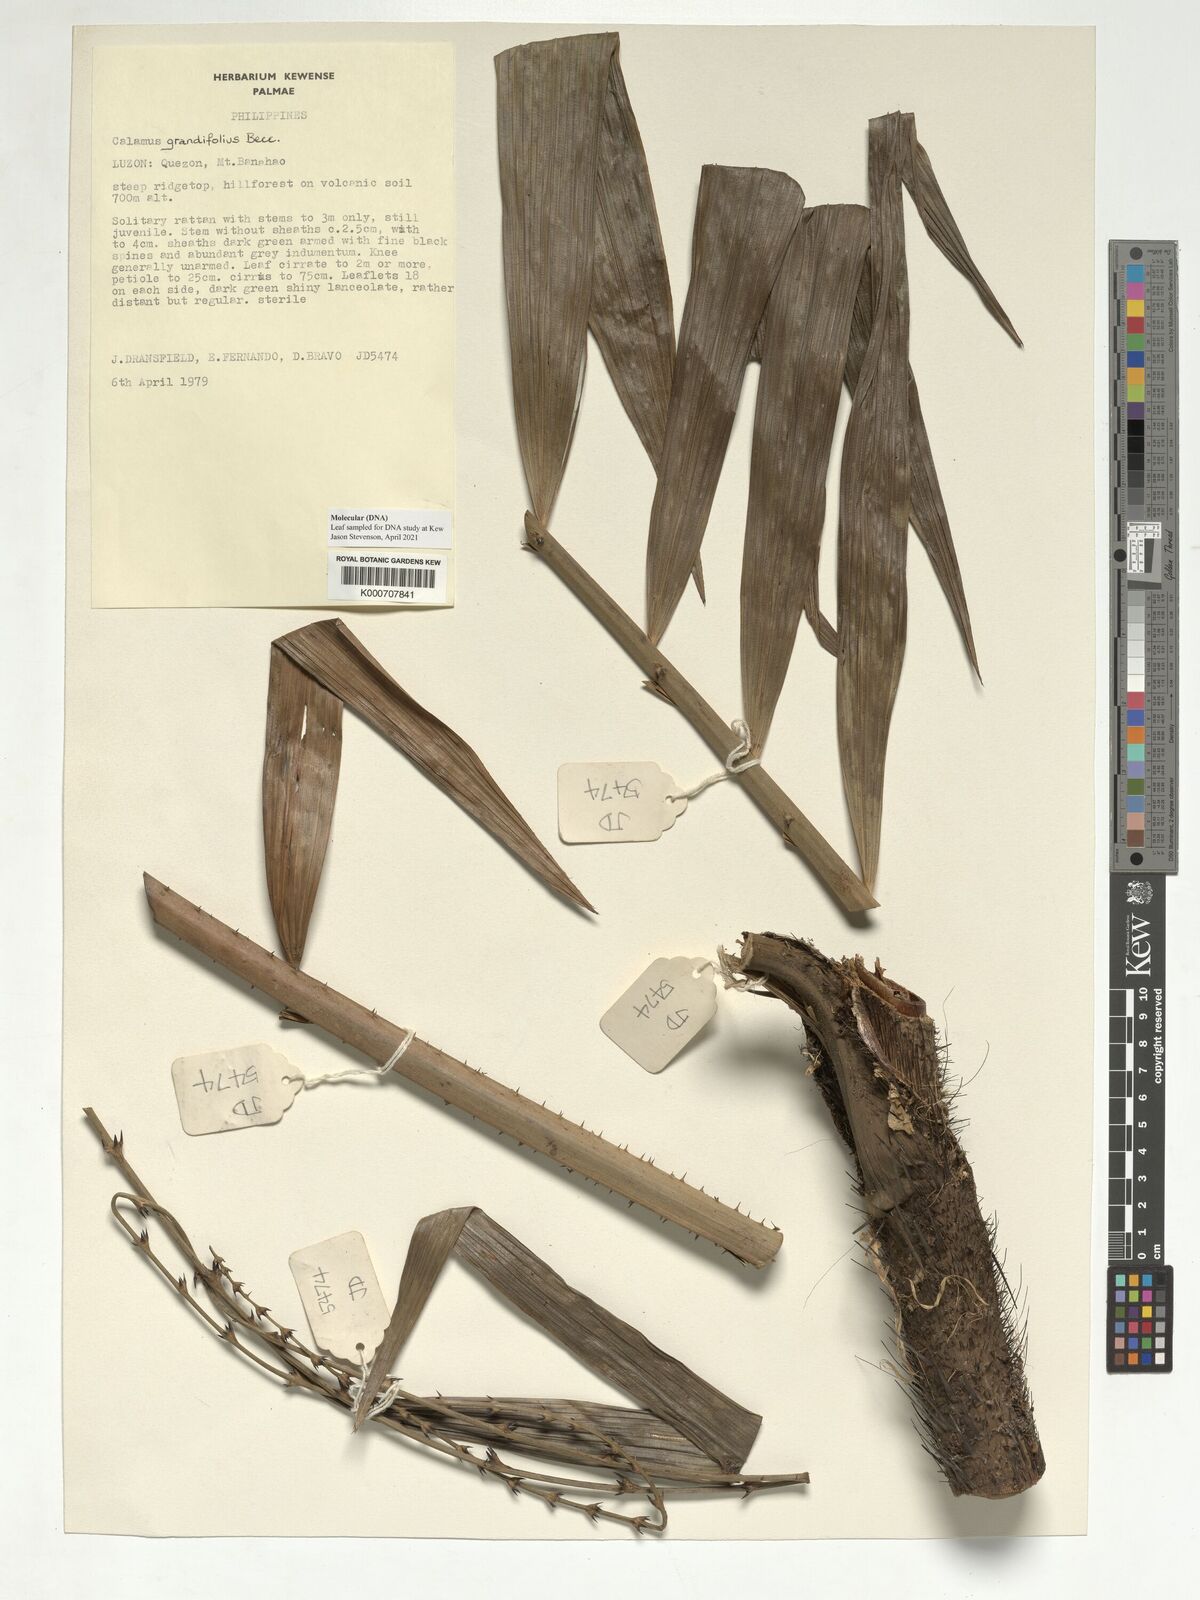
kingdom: Plantae
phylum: Tracheophyta
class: Liliopsida
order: Arecales
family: Arecaceae
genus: Calamus
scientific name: Calamus moseleyanus
